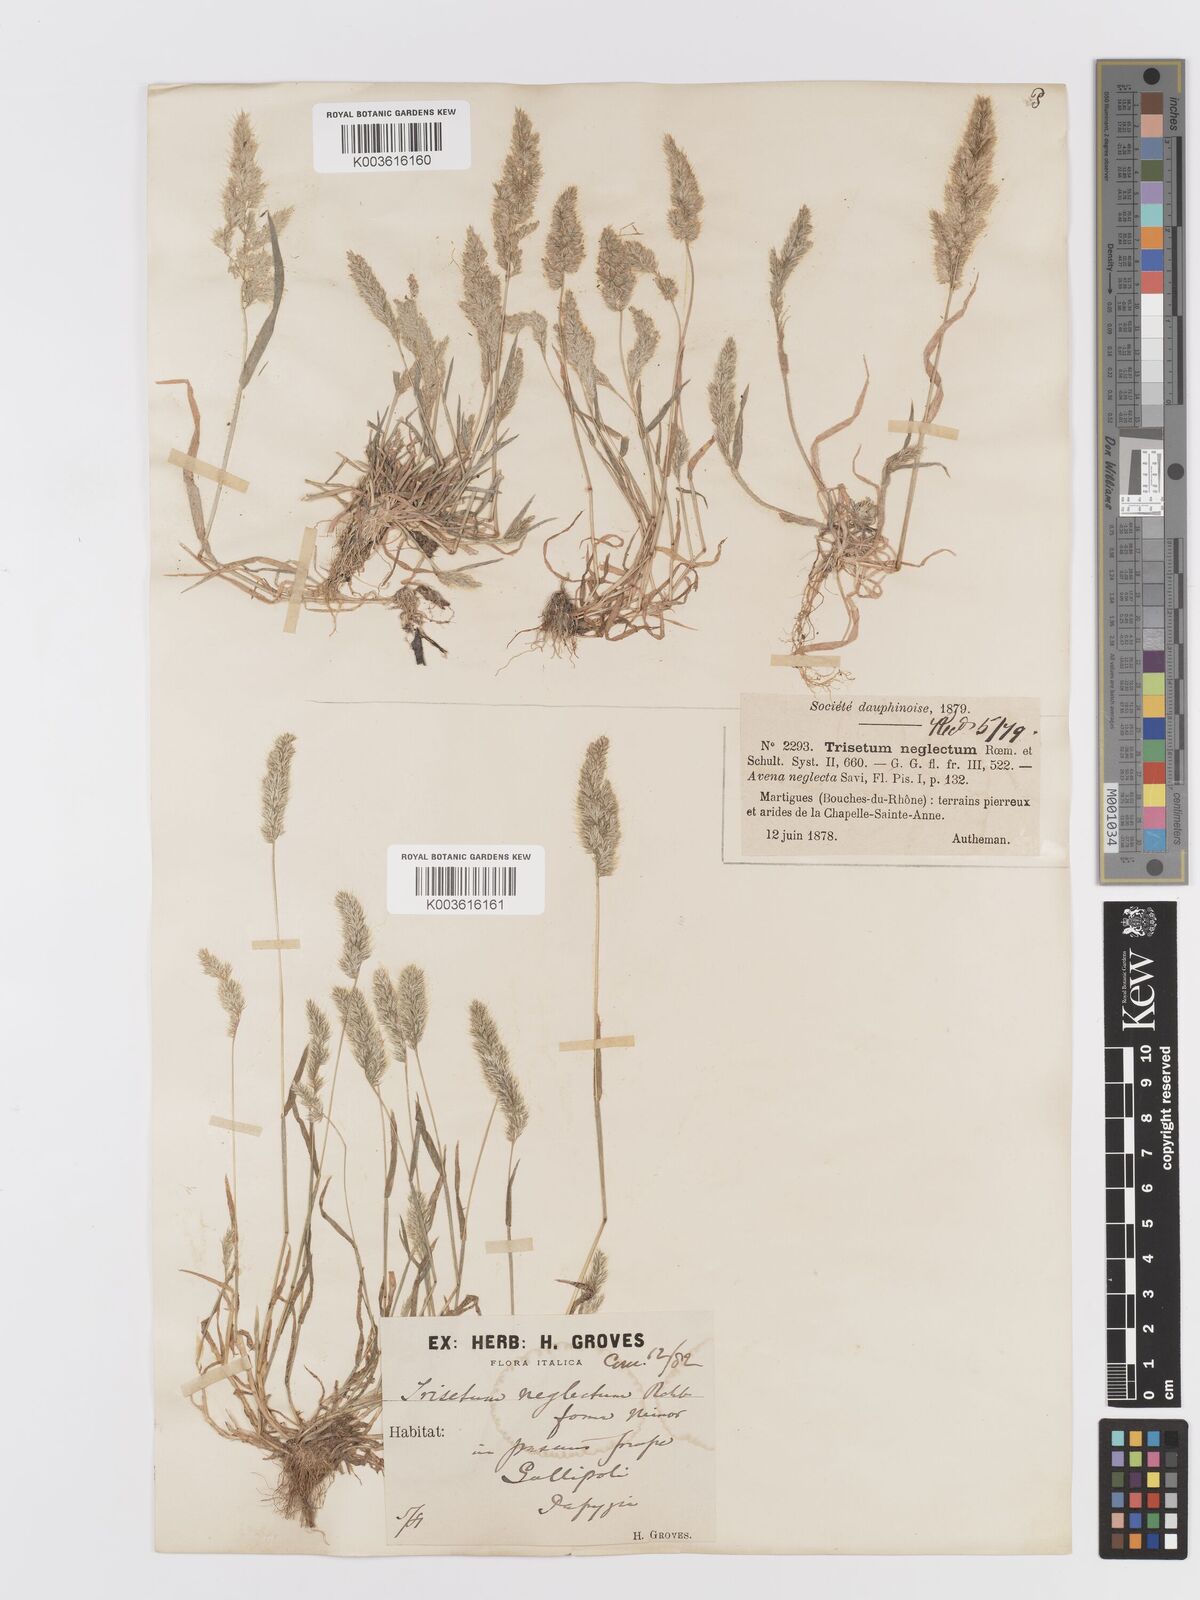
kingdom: Plantae
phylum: Tracheophyta
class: Liliopsida
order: Poales
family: Poaceae
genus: Trisetaria
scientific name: Trisetaria panicea
